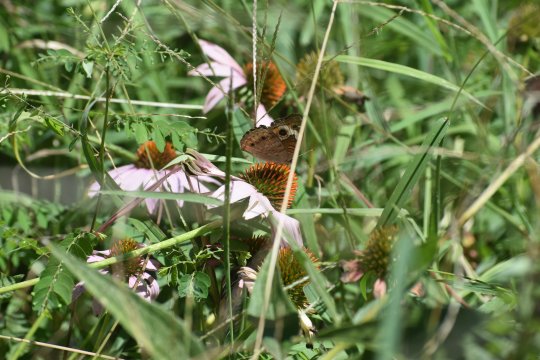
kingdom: Animalia
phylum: Arthropoda
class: Insecta
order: Lepidoptera
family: Nymphalidae
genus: Junonia
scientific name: Junonia coenia
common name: Common Buckeye
